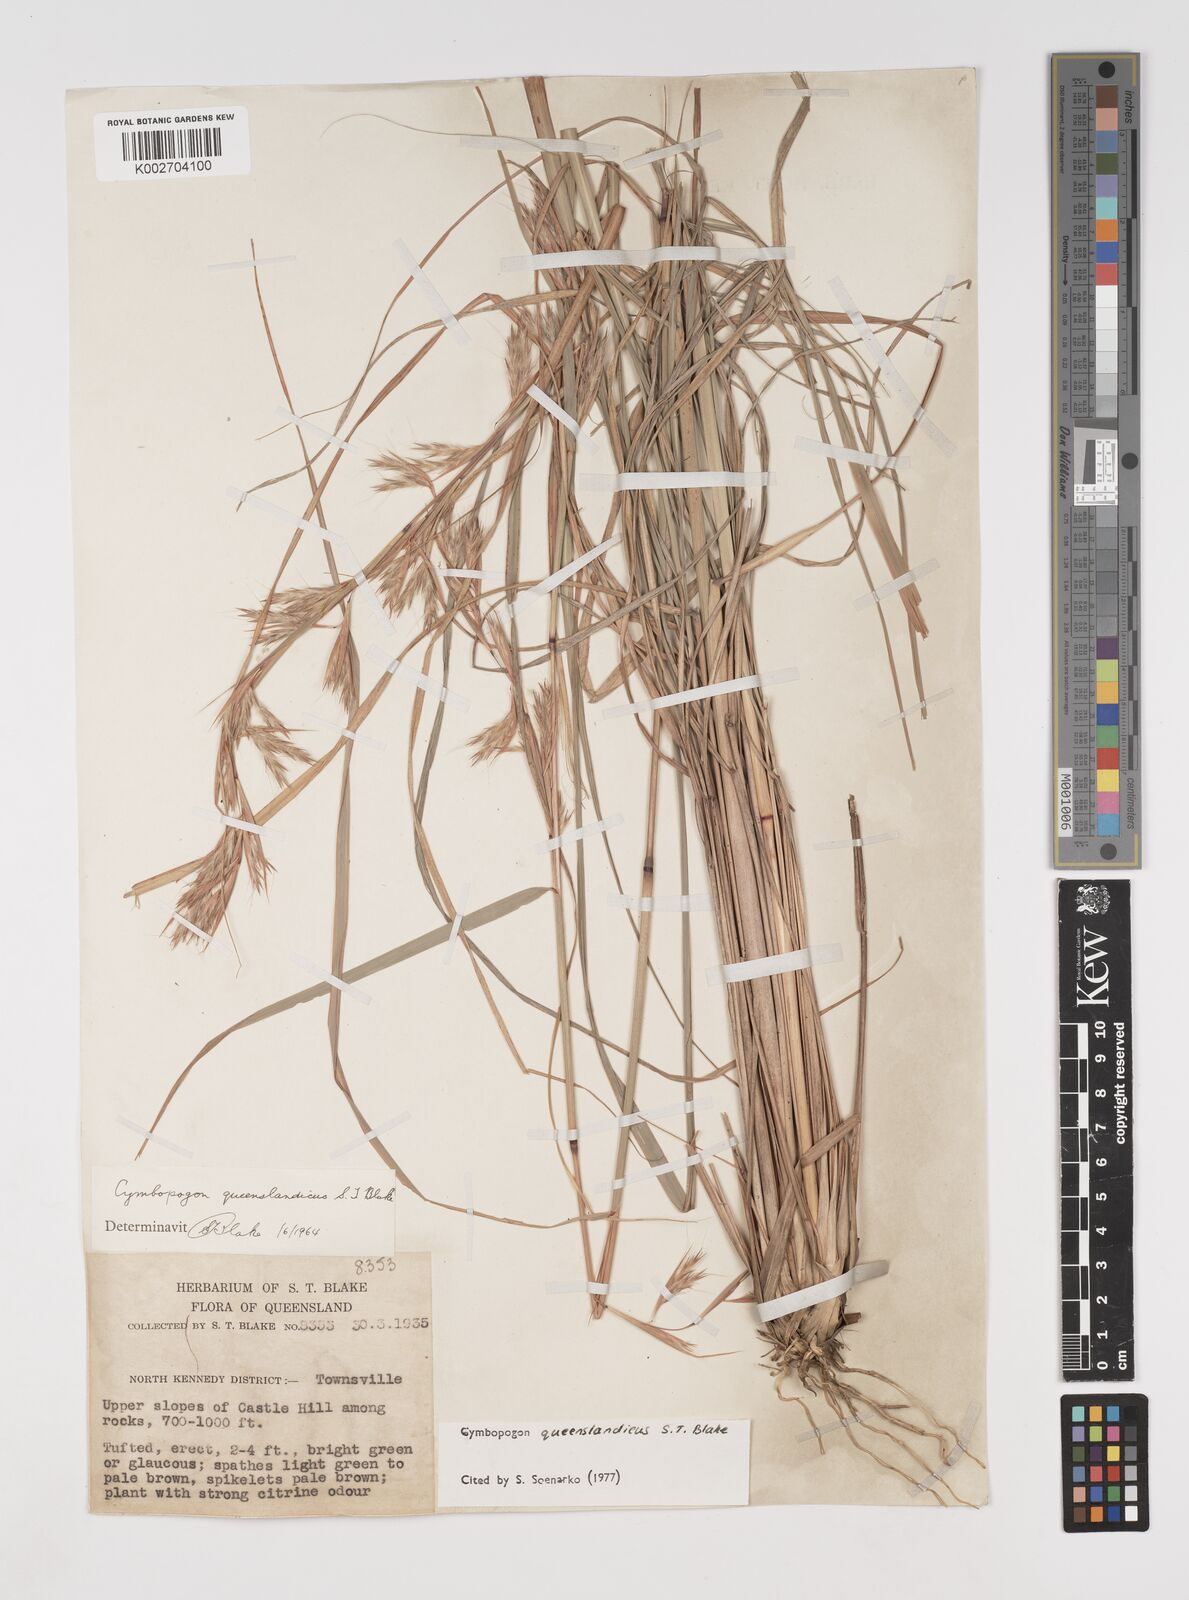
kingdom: Plantae
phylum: Tracheophyta
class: Liliopsida
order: Poales
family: Poaceae
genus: Cymbopogon
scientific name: Cymbopogon queenslandicus
